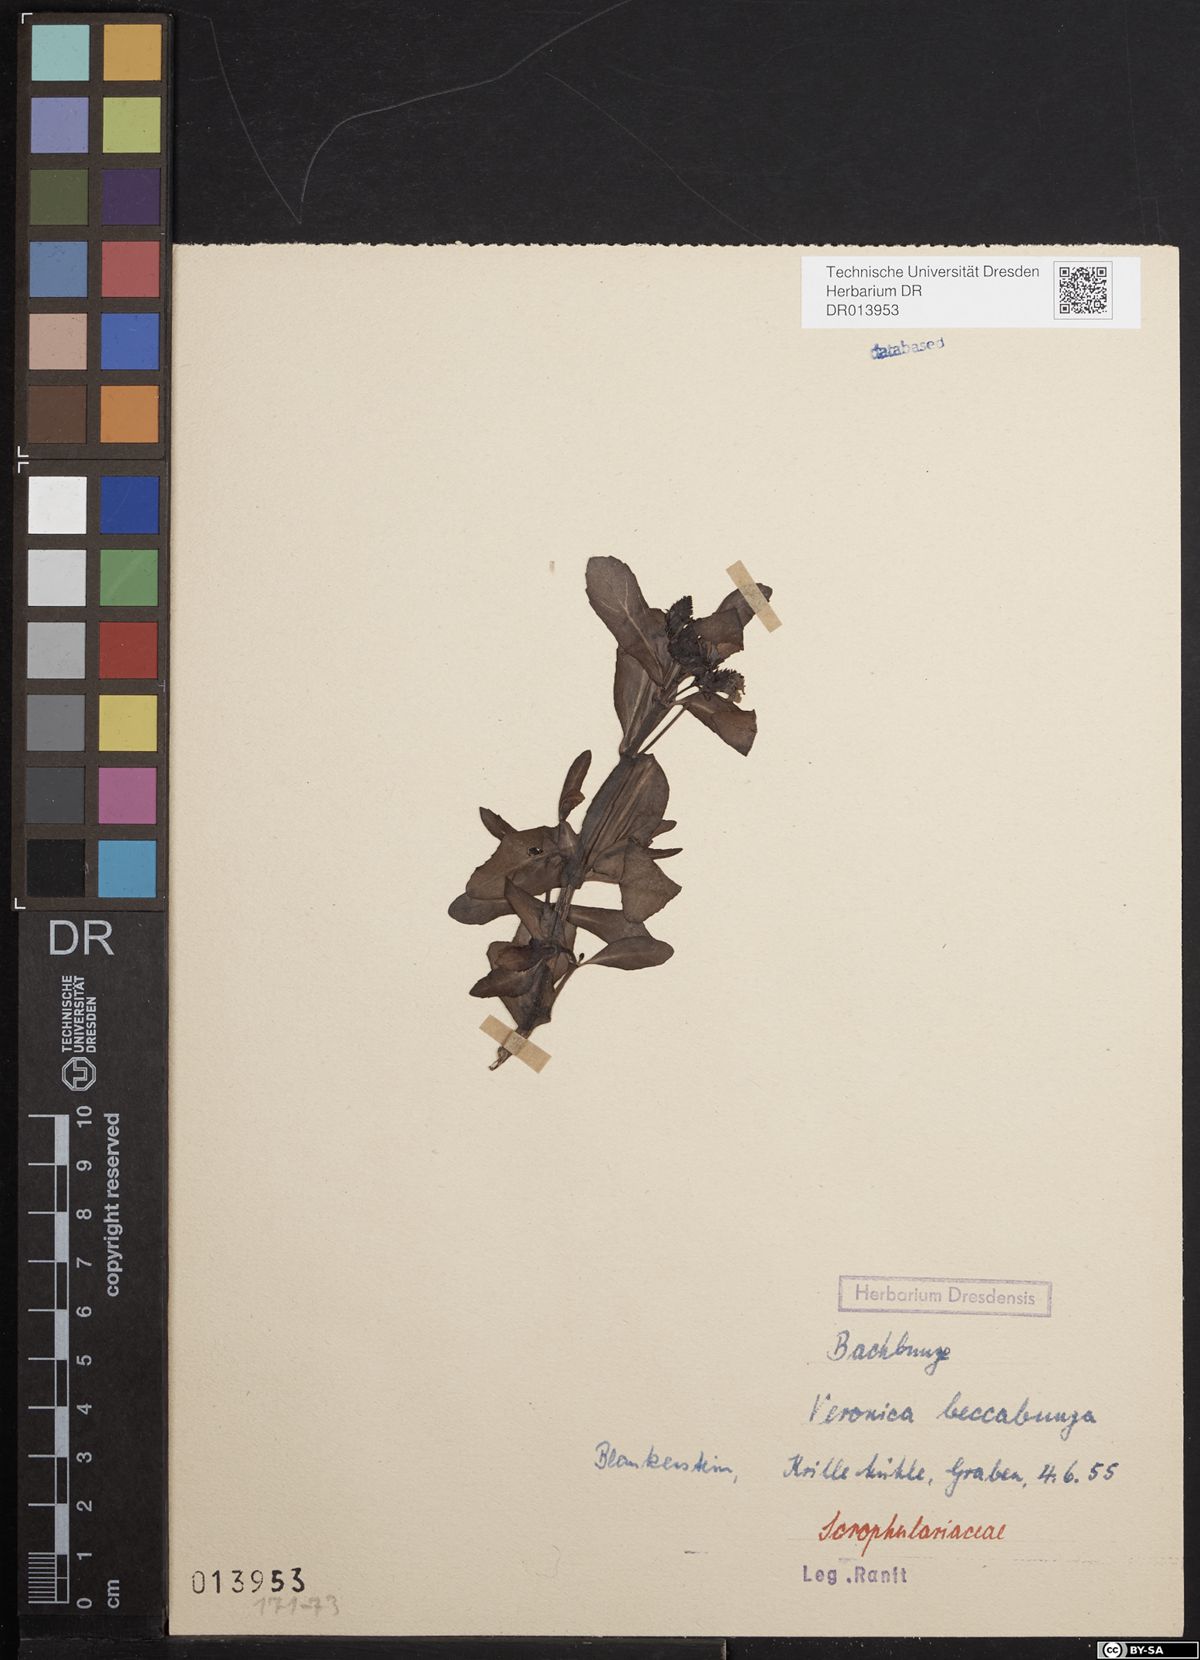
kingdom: Plantae
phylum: Tracheophyta
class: Magnoliopsida
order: Lamiales
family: Plantaginaceae
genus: Veronica
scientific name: Veronica beccabunga
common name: Brooklime
